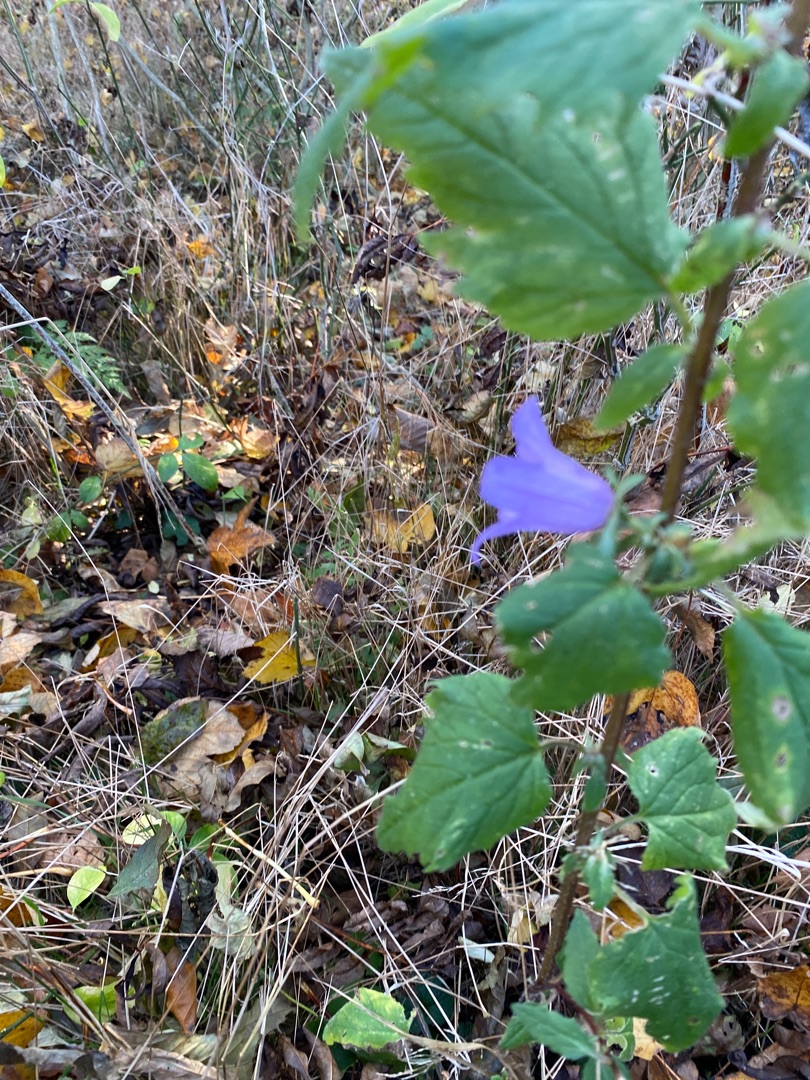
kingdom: Plantae
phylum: Tracheophyta
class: Magnoliopsida
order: Asterales
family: Campanulaceae
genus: Campanula
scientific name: Campanula rapunculoides
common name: Ensidig klokke
